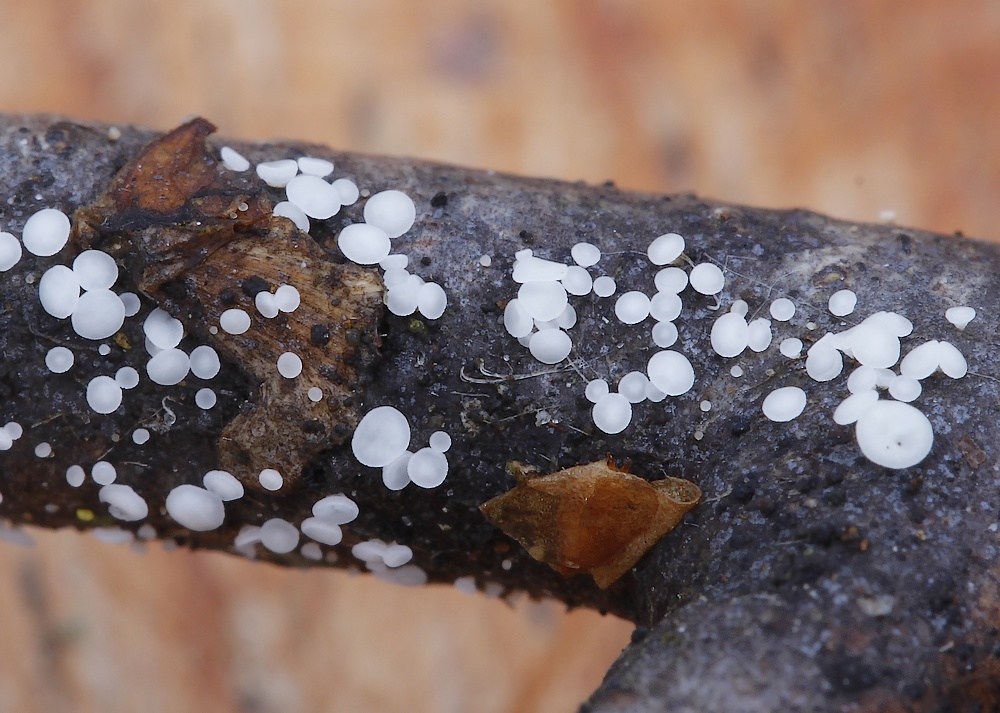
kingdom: Fungi
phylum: Ascomycota
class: Leotiomycetes
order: Helotiales
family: Pezizellaceae
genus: Calycina
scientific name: Calycina languida
